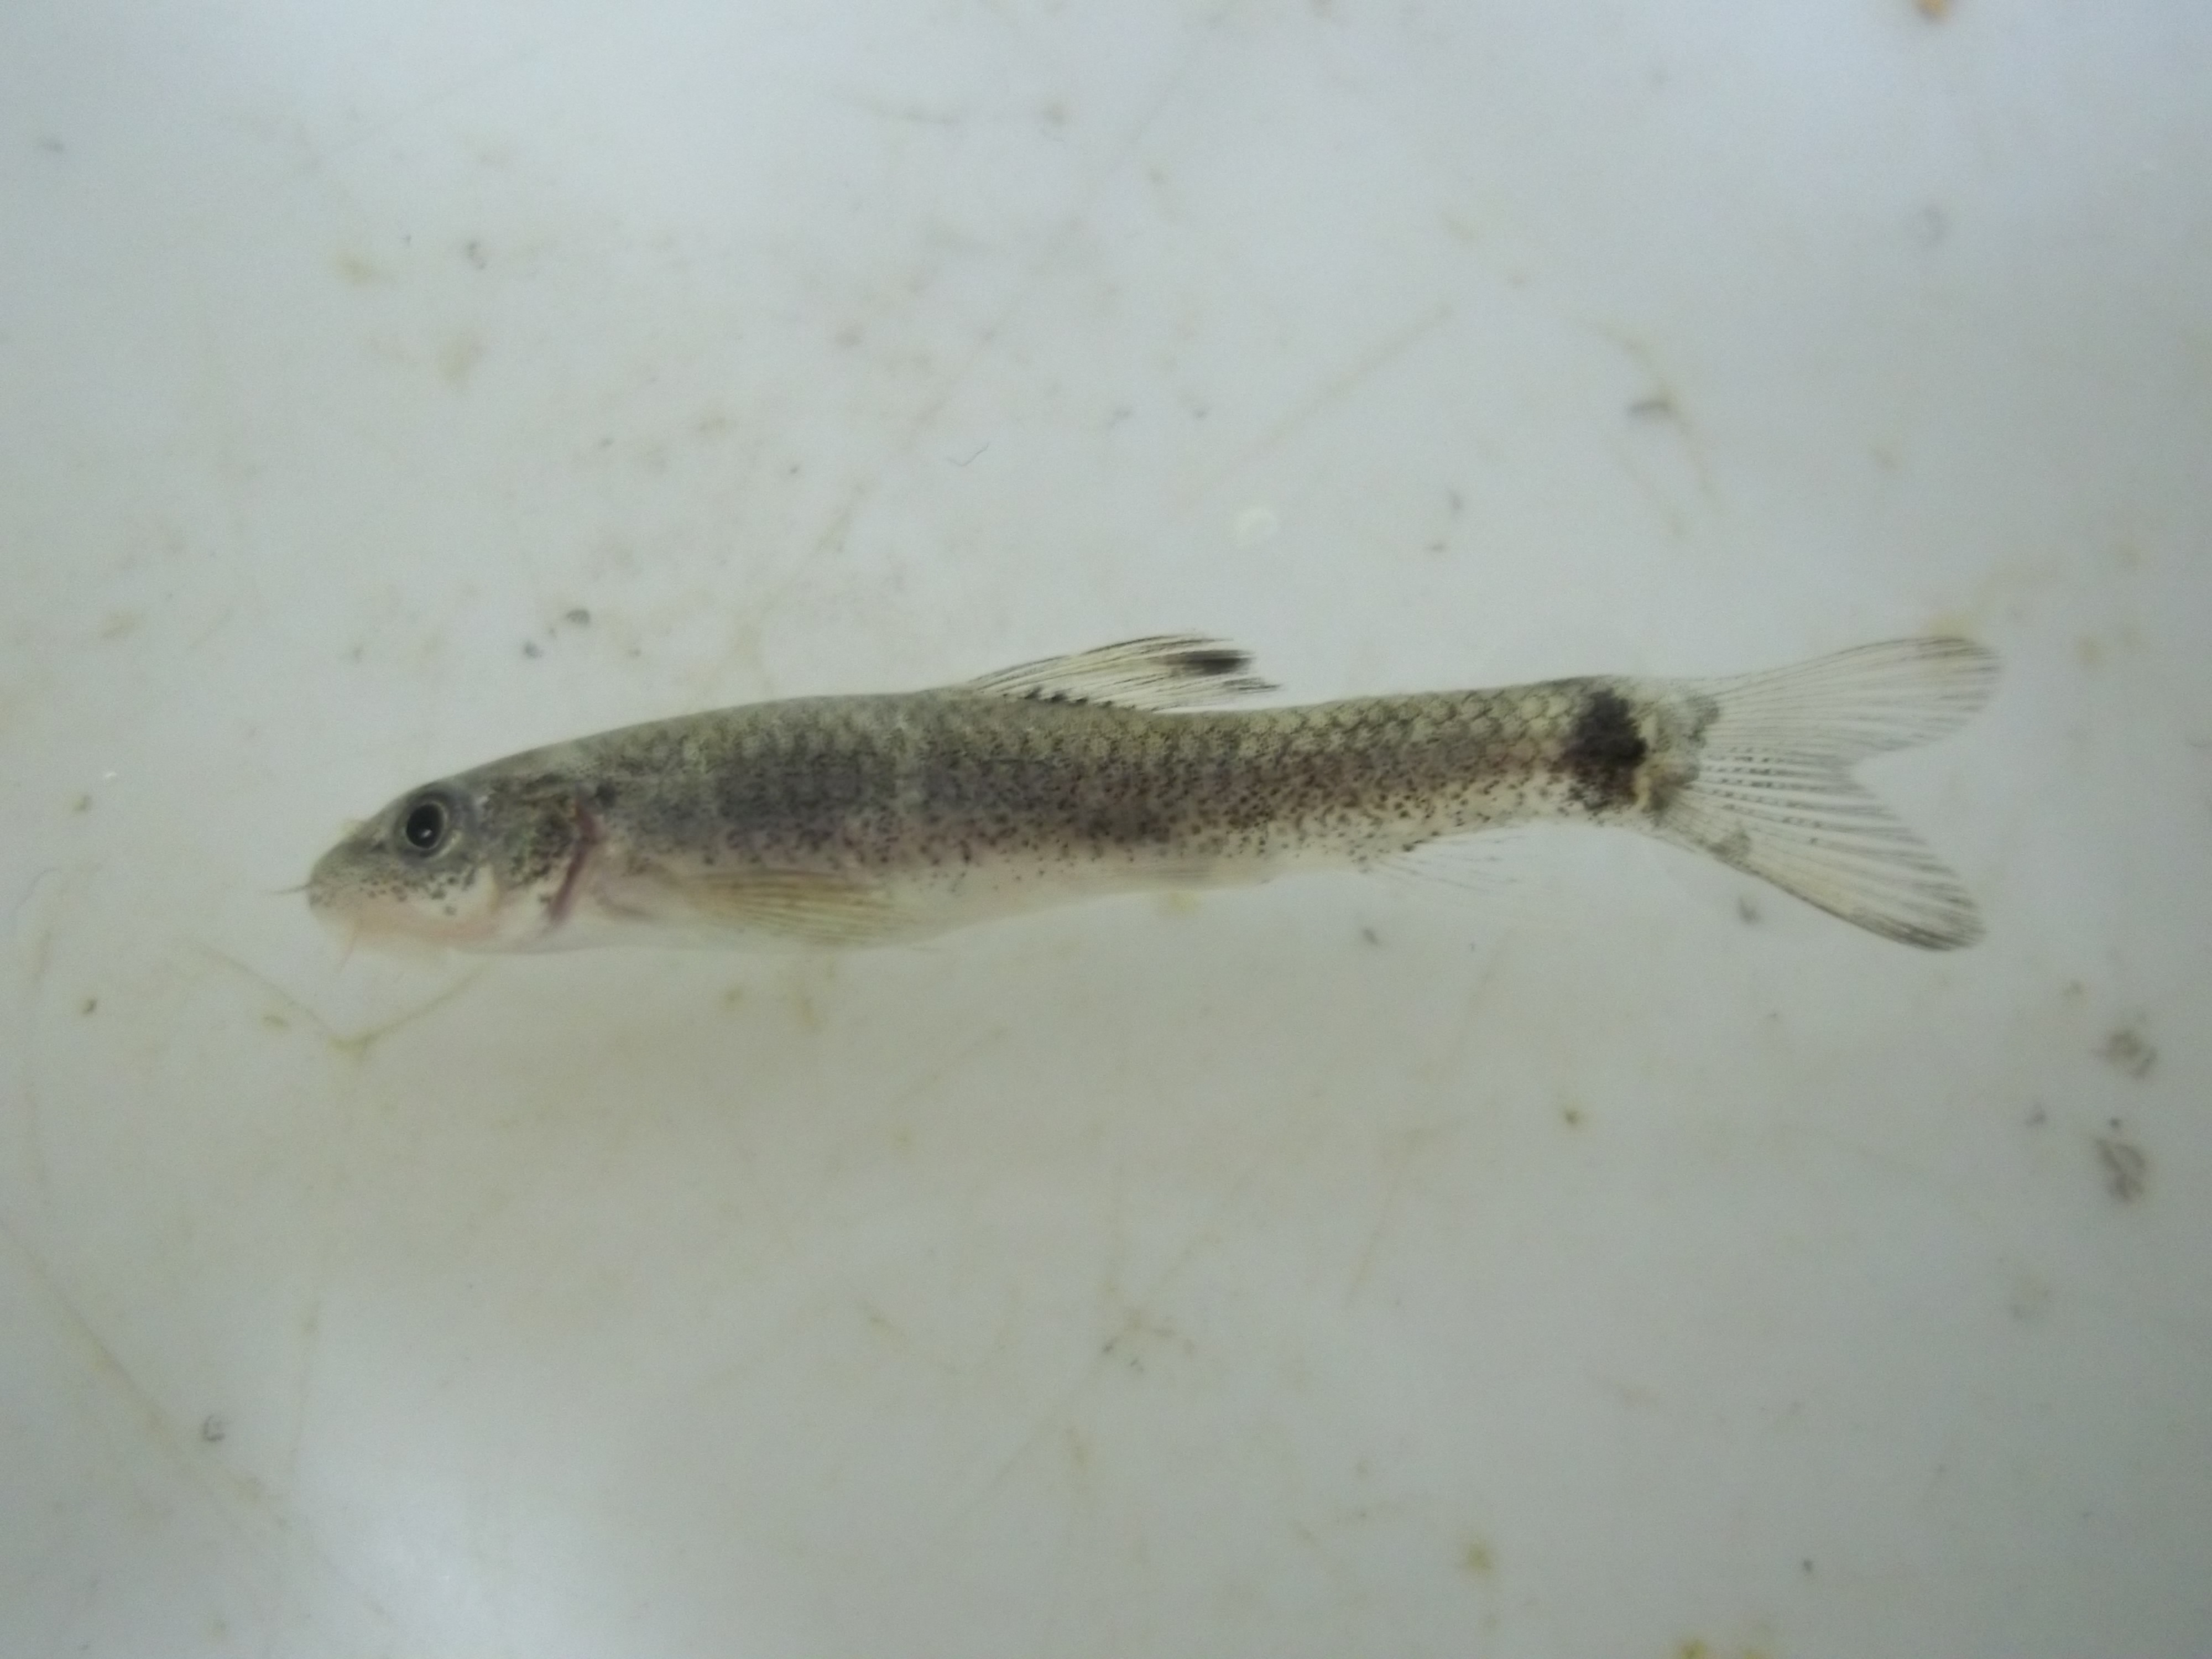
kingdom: Animalia
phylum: Chordata
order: Cypriniformes
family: Cyprinidae
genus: Garra
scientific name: Garra rufa
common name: Red garra
